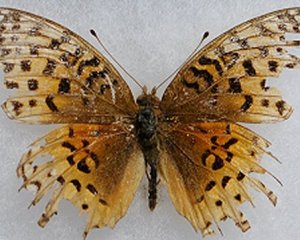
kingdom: Animalia
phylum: Arthropoda
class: Insecta
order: Lepidoptera
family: Nymphalidae
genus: Speyeria
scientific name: Speyeria aphrodite
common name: Aphrodite Fritillary
